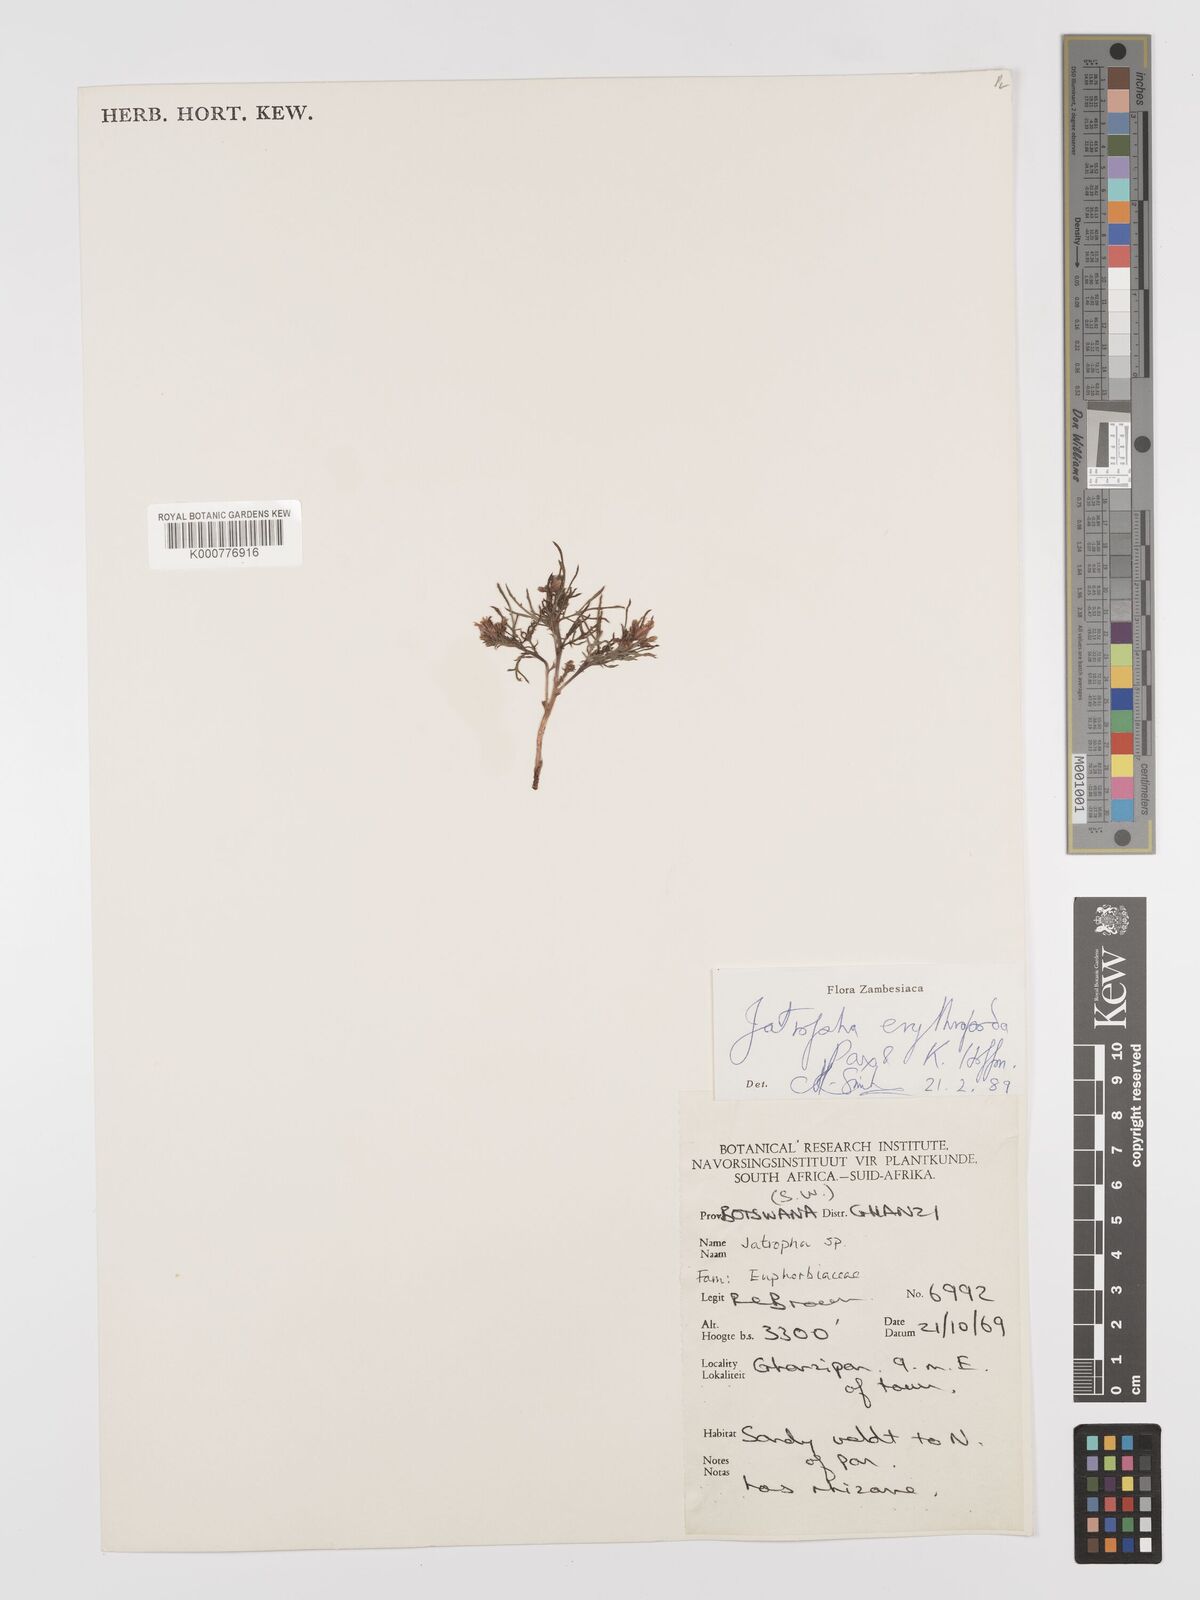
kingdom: Plantae
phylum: Tracheophyta
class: Magnoliopsida
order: Malpighiales
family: Euphorbiaceae
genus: Jatropha
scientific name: Jatropha erythropoda
